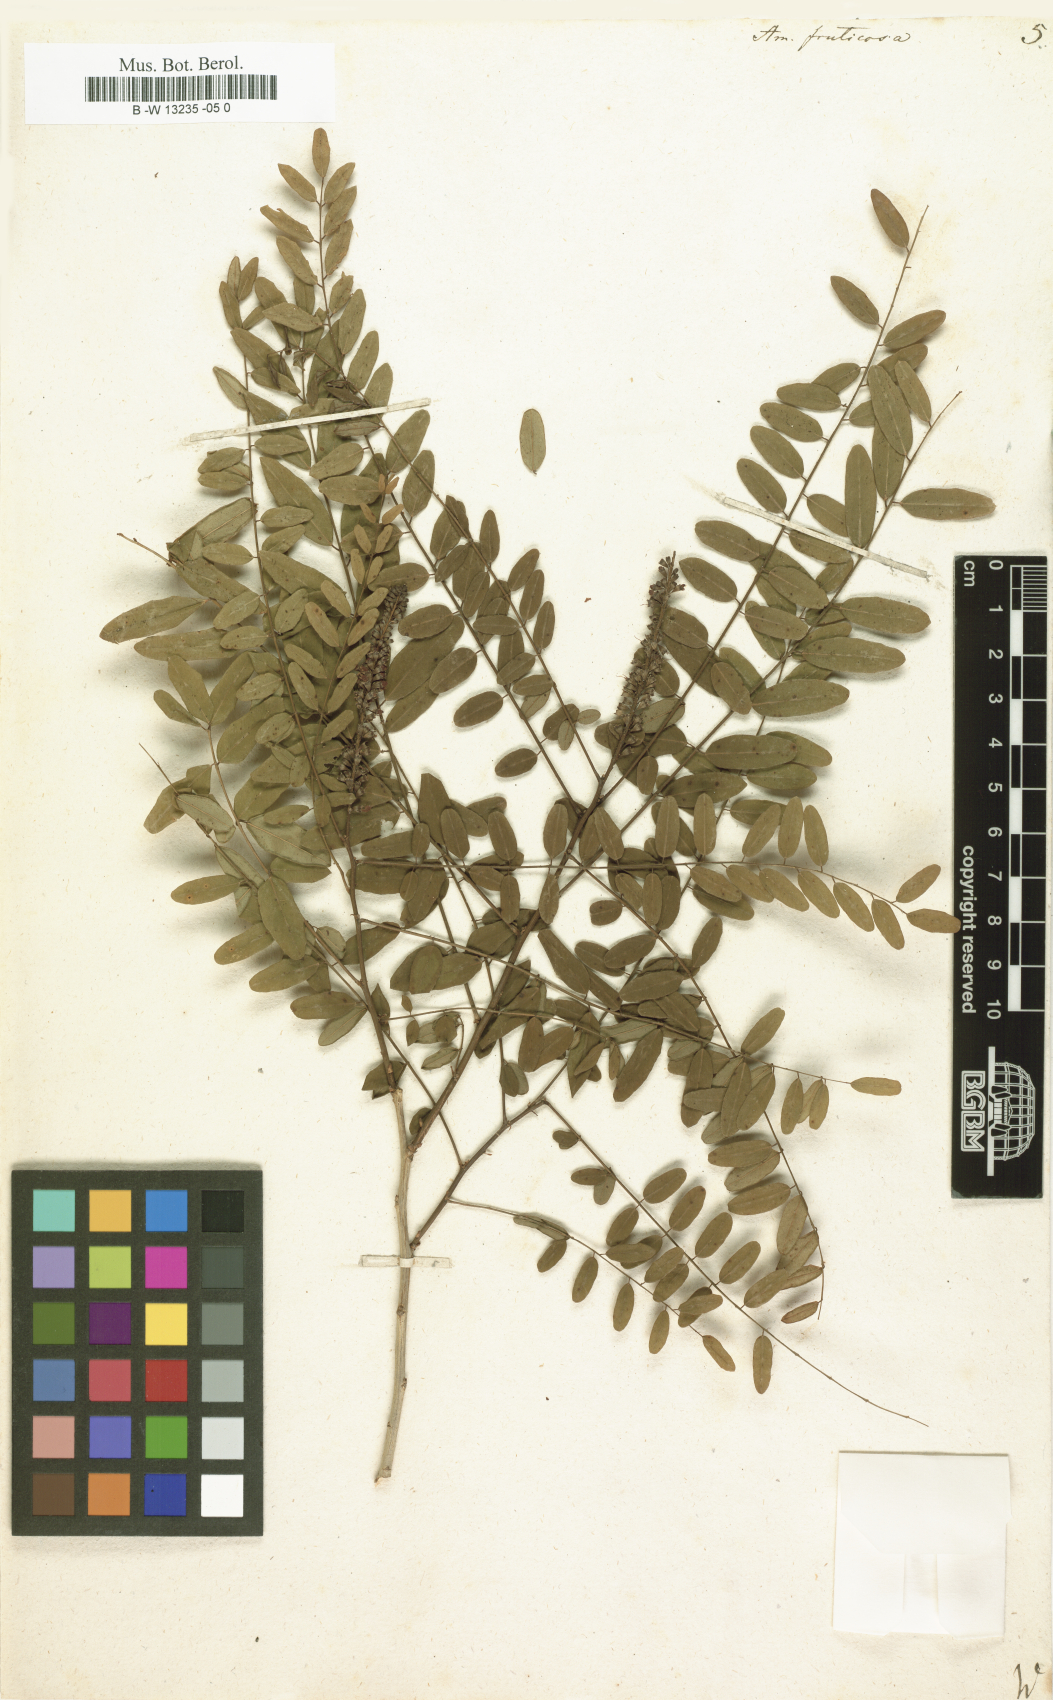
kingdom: Plantae
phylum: Tracheophyta
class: Magnoliopsida
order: Fabales
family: Fabaceae
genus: Amorpha
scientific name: Amorpha fruticosa
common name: False indigo
